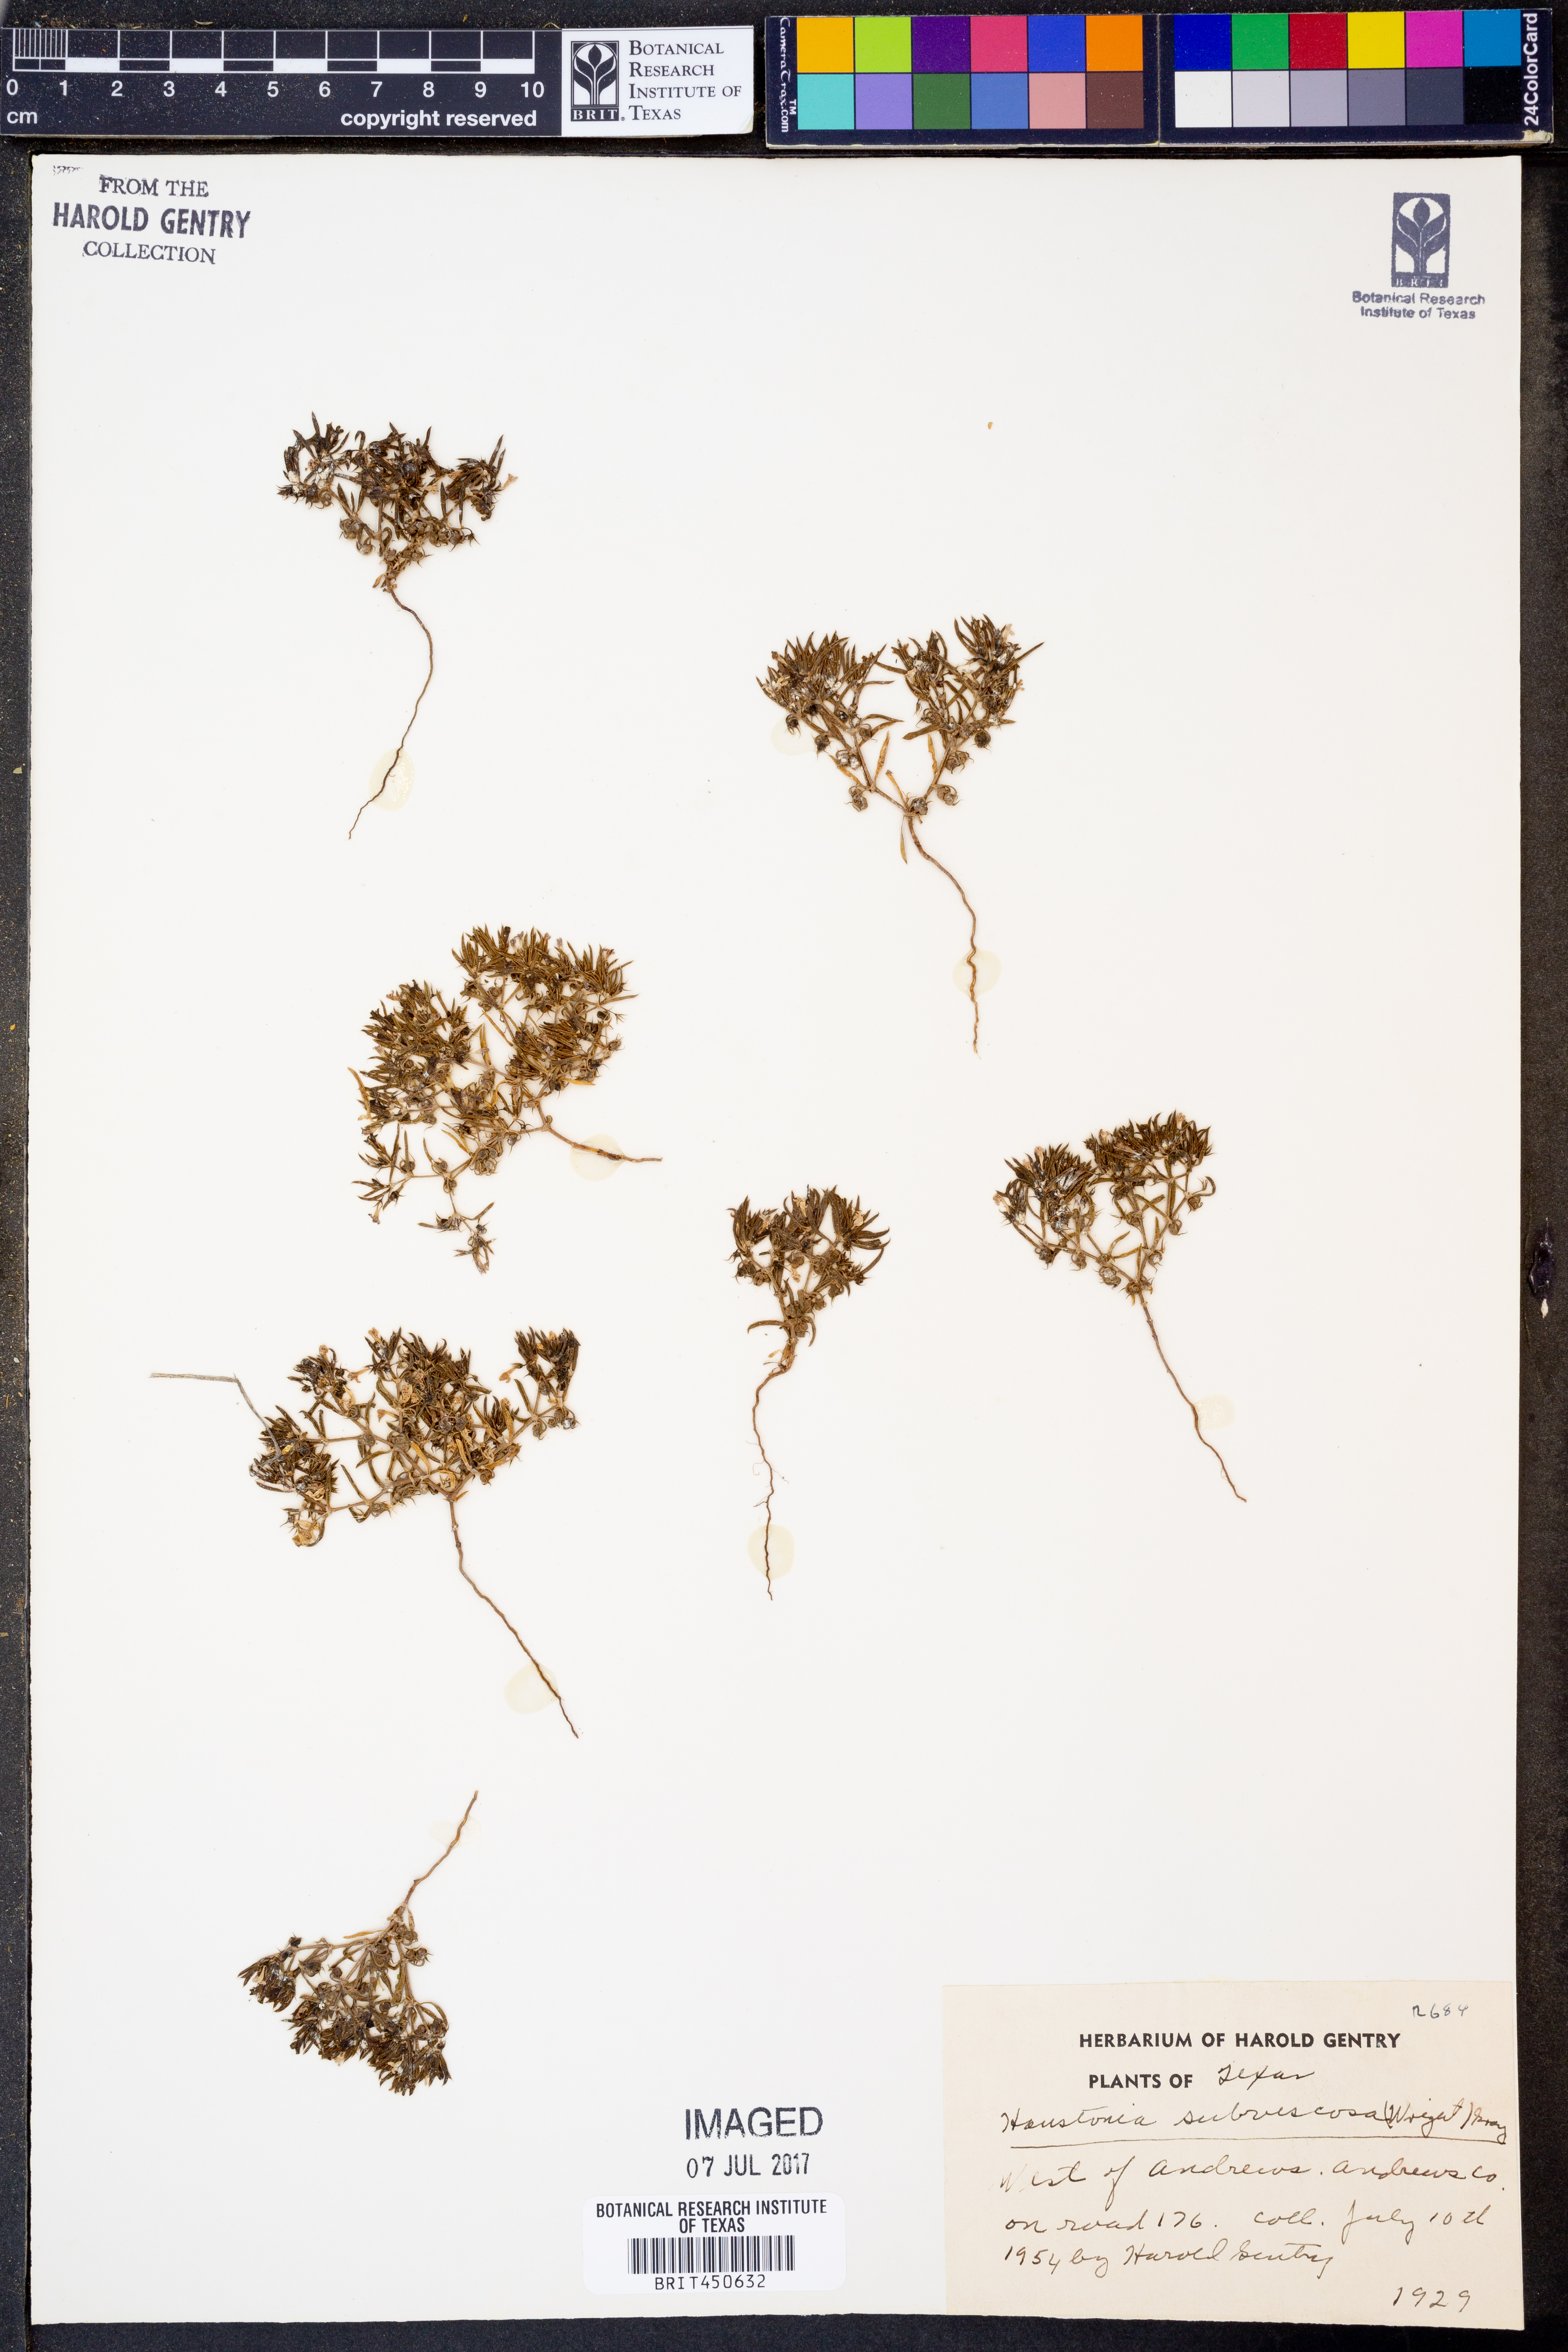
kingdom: Plantae
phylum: Tracheophyta
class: Magnoliopsida
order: Gentianales
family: Rubiaceae
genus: Houstonia
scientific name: Houstonia subviscosa
